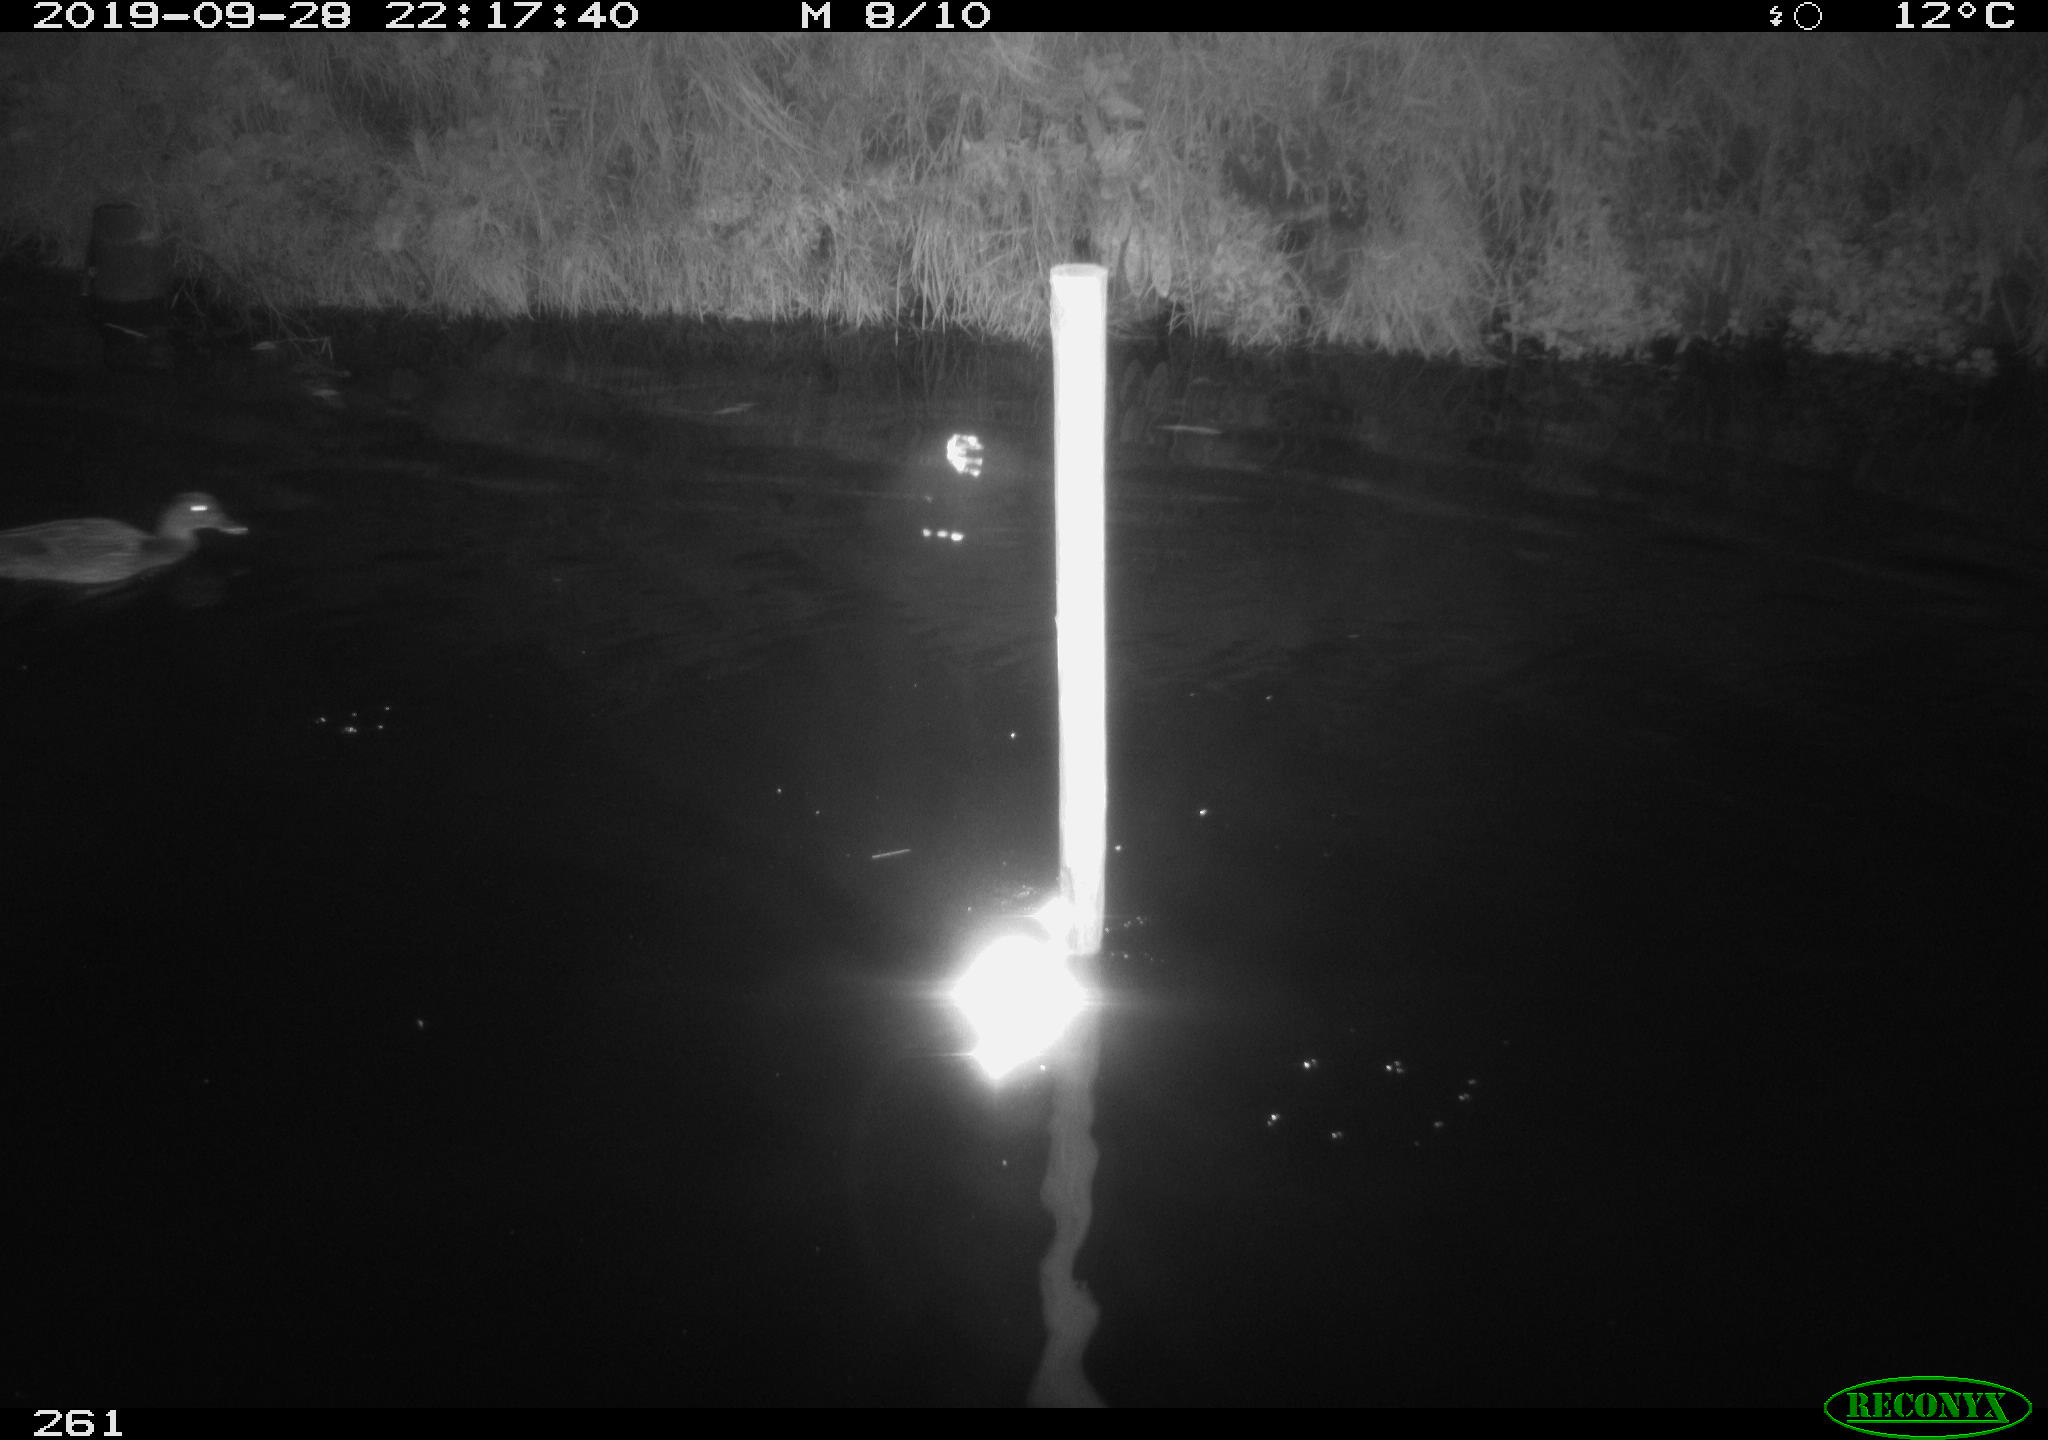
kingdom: Animalia
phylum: Chordata
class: Aves
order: Anseriformes
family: Anatidae
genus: Anas
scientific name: Anas platyrhynchos
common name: Mallard
